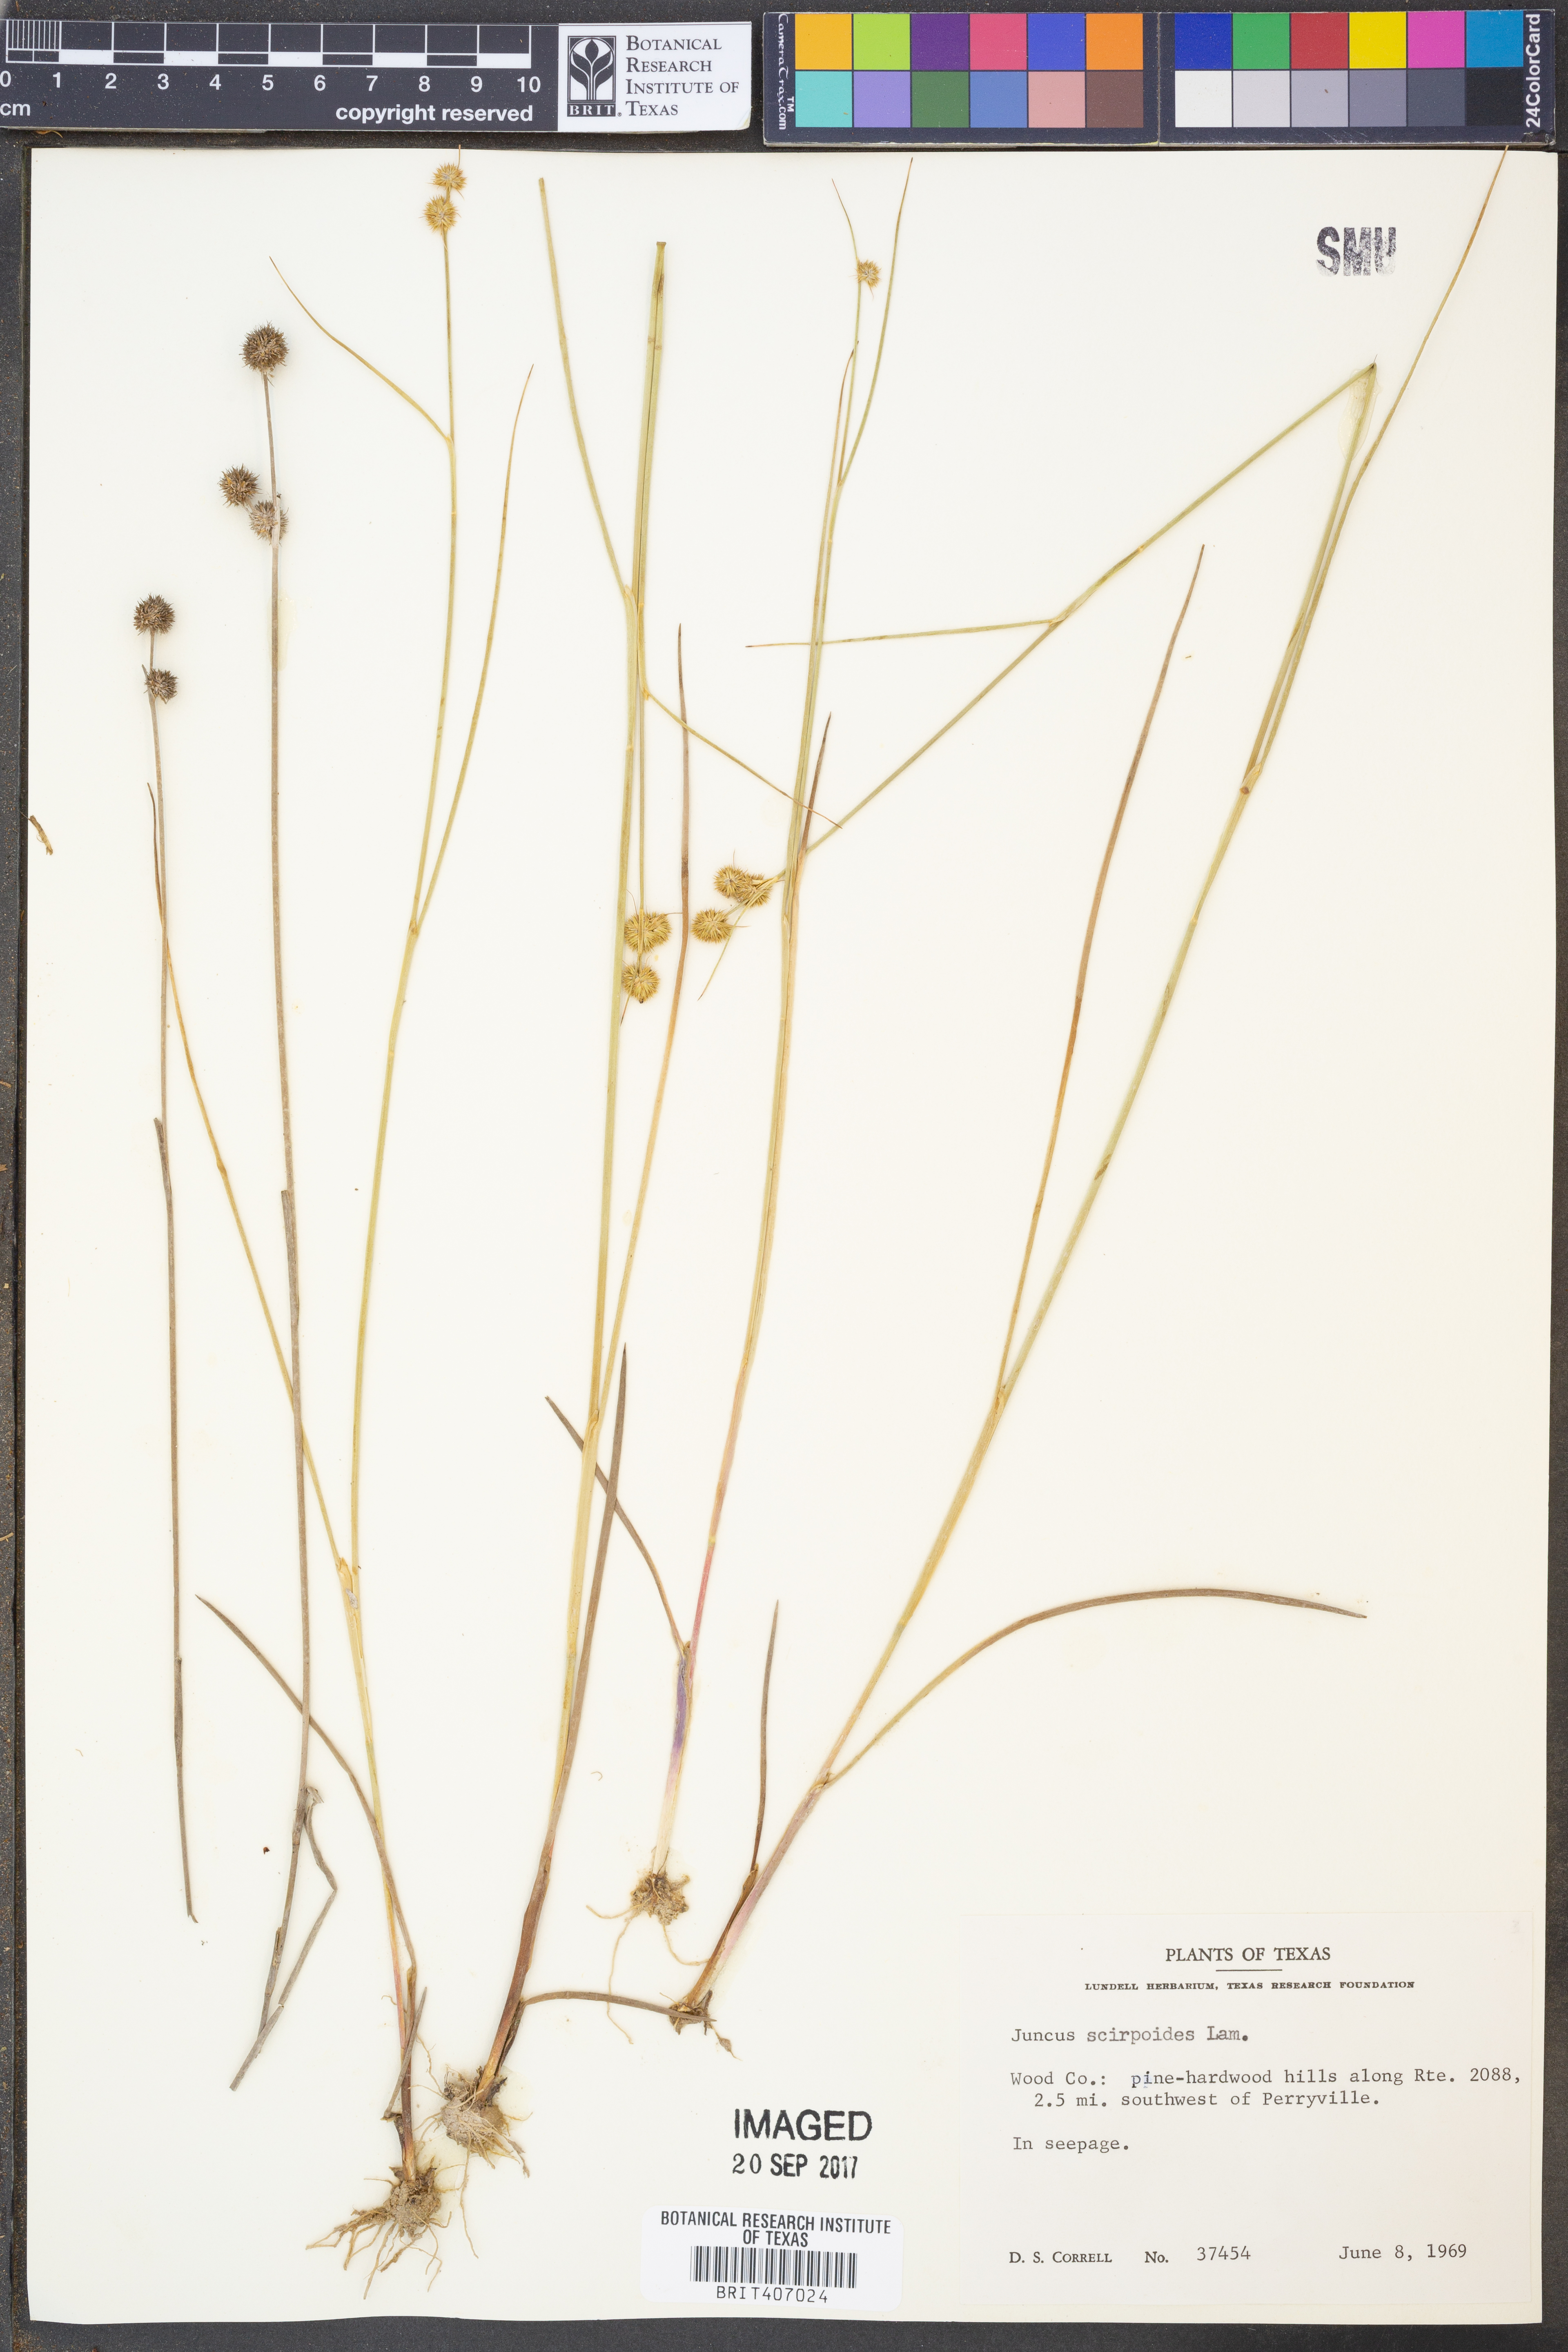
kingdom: Plantae
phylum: Tracheophyta
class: Liliopsida
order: Poales
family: Juncaceae
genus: Juncus
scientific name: Juncus scirpoides
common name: Needlepod rush
